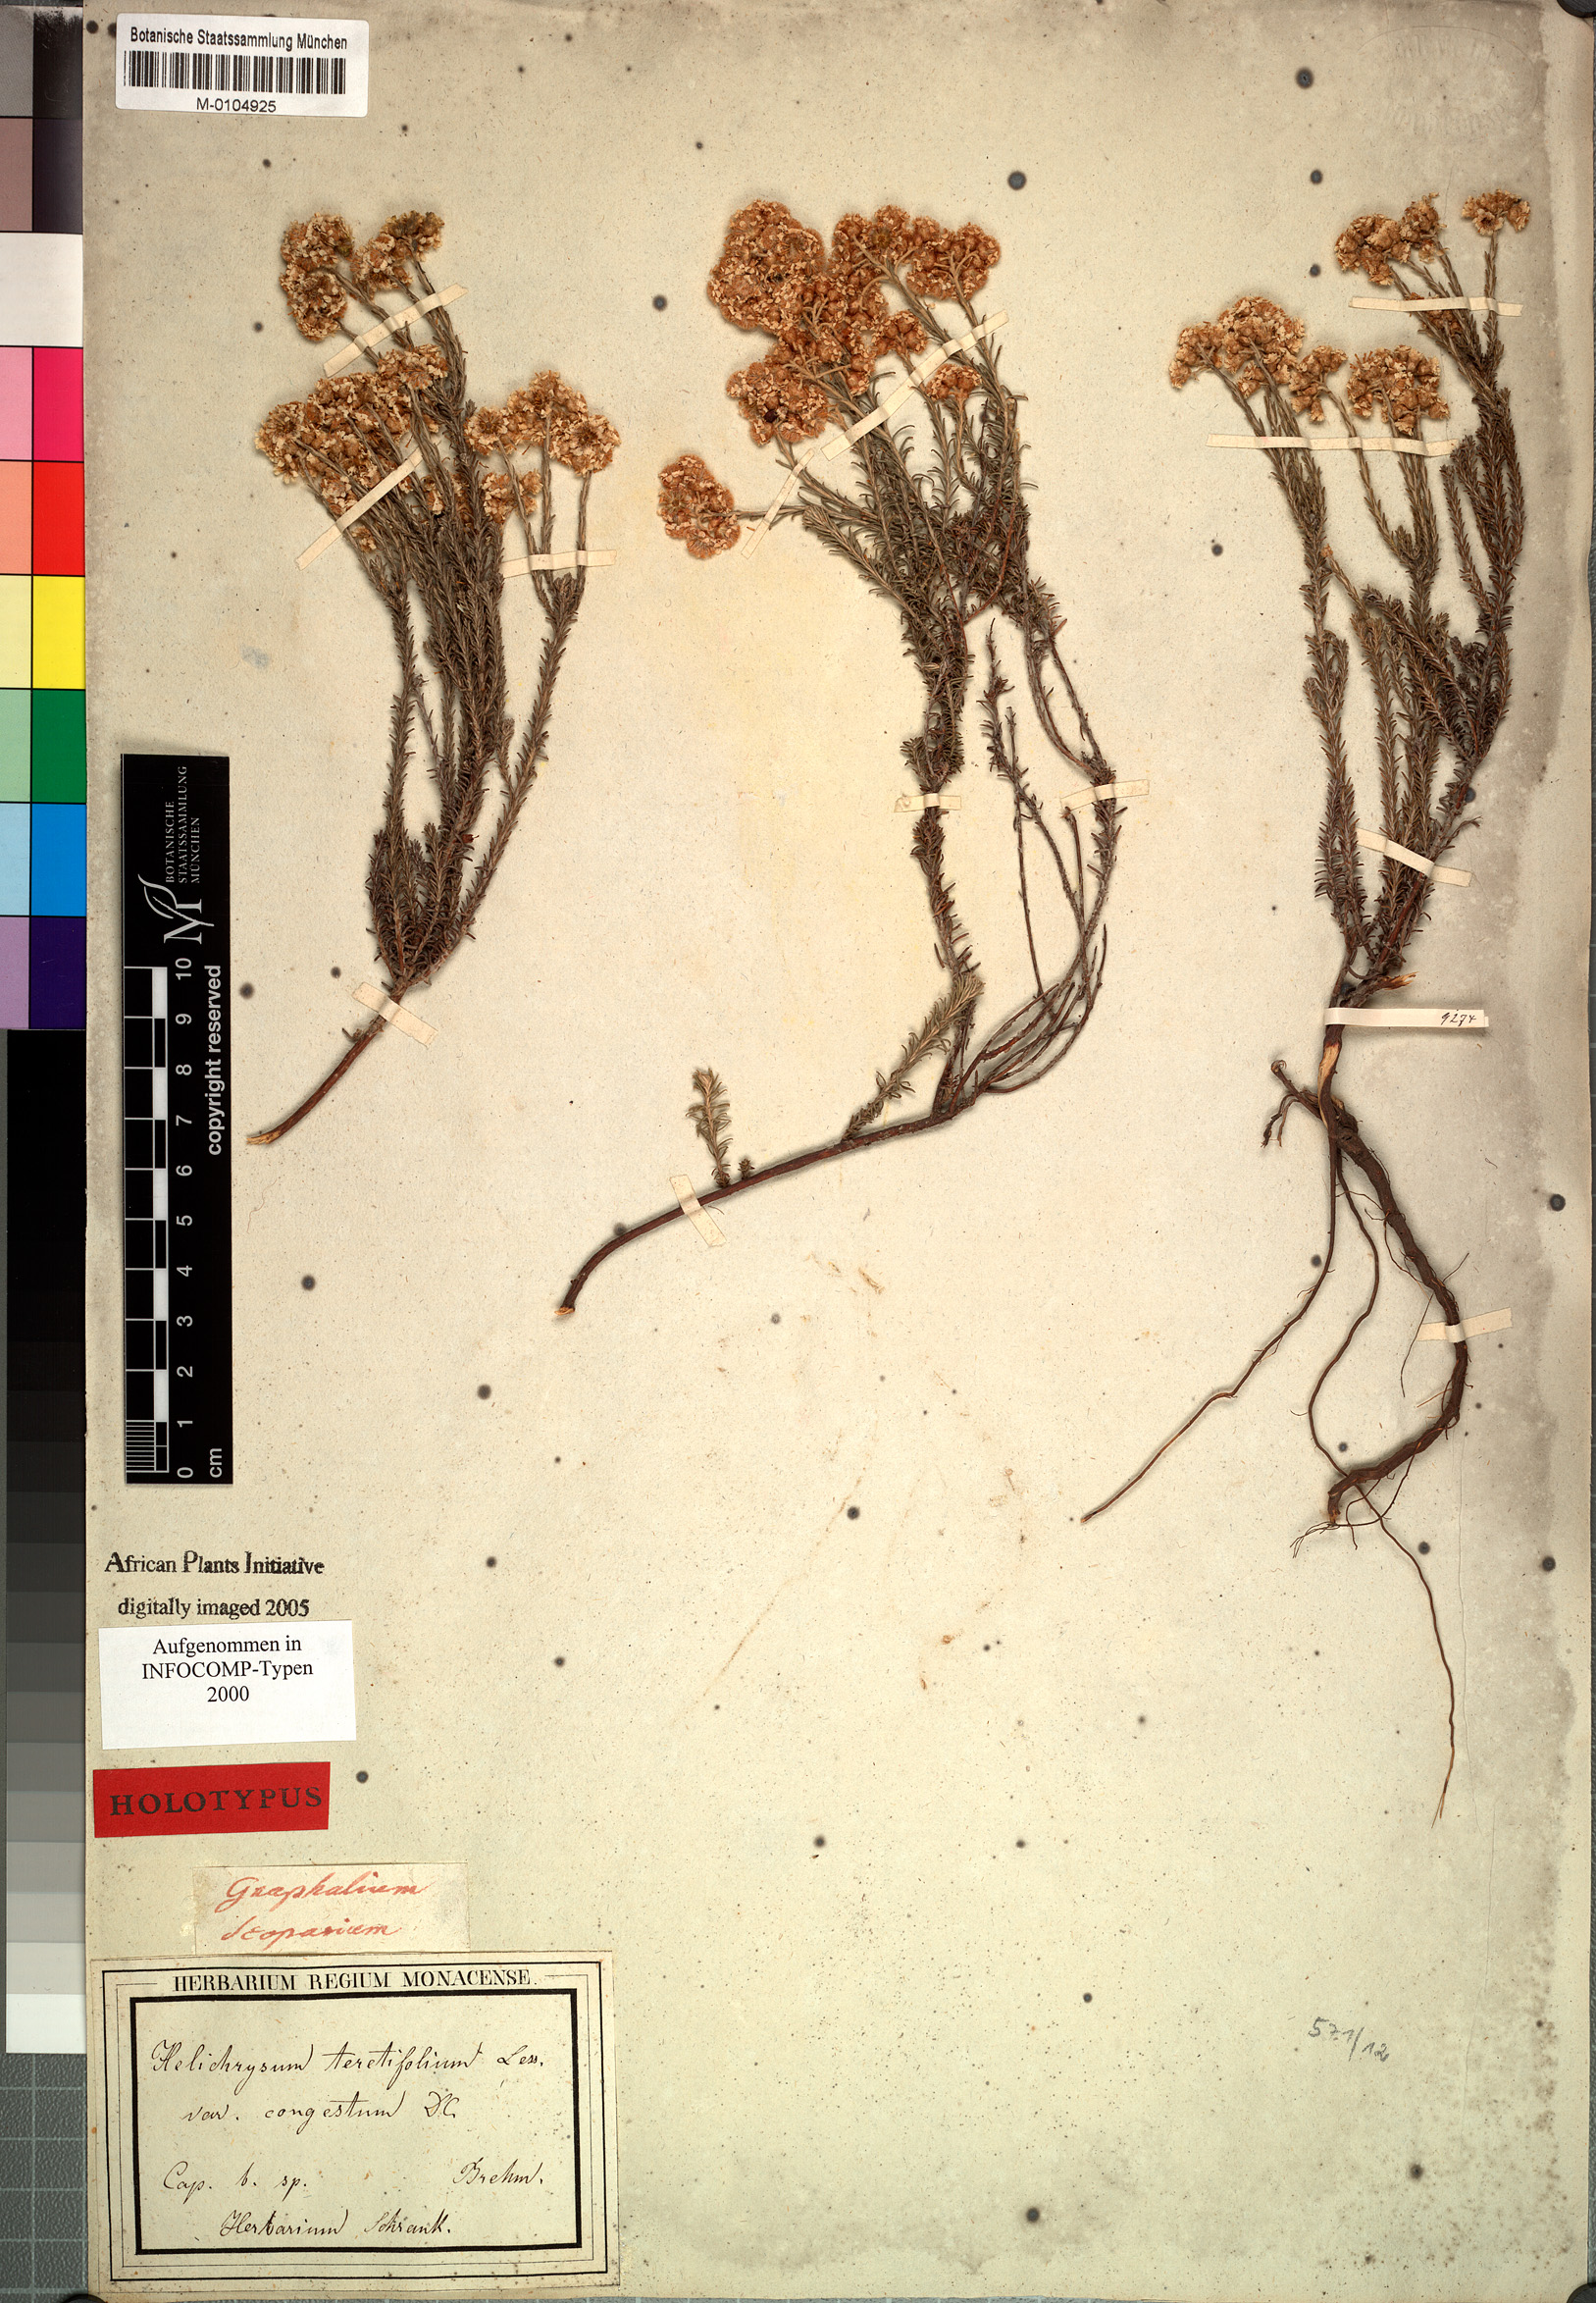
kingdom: Plantae
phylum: Tracheophyta
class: Magnoliopsida
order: Asterales
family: Asteraceae
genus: Helichrysum
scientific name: Helichrysum teretifolium
